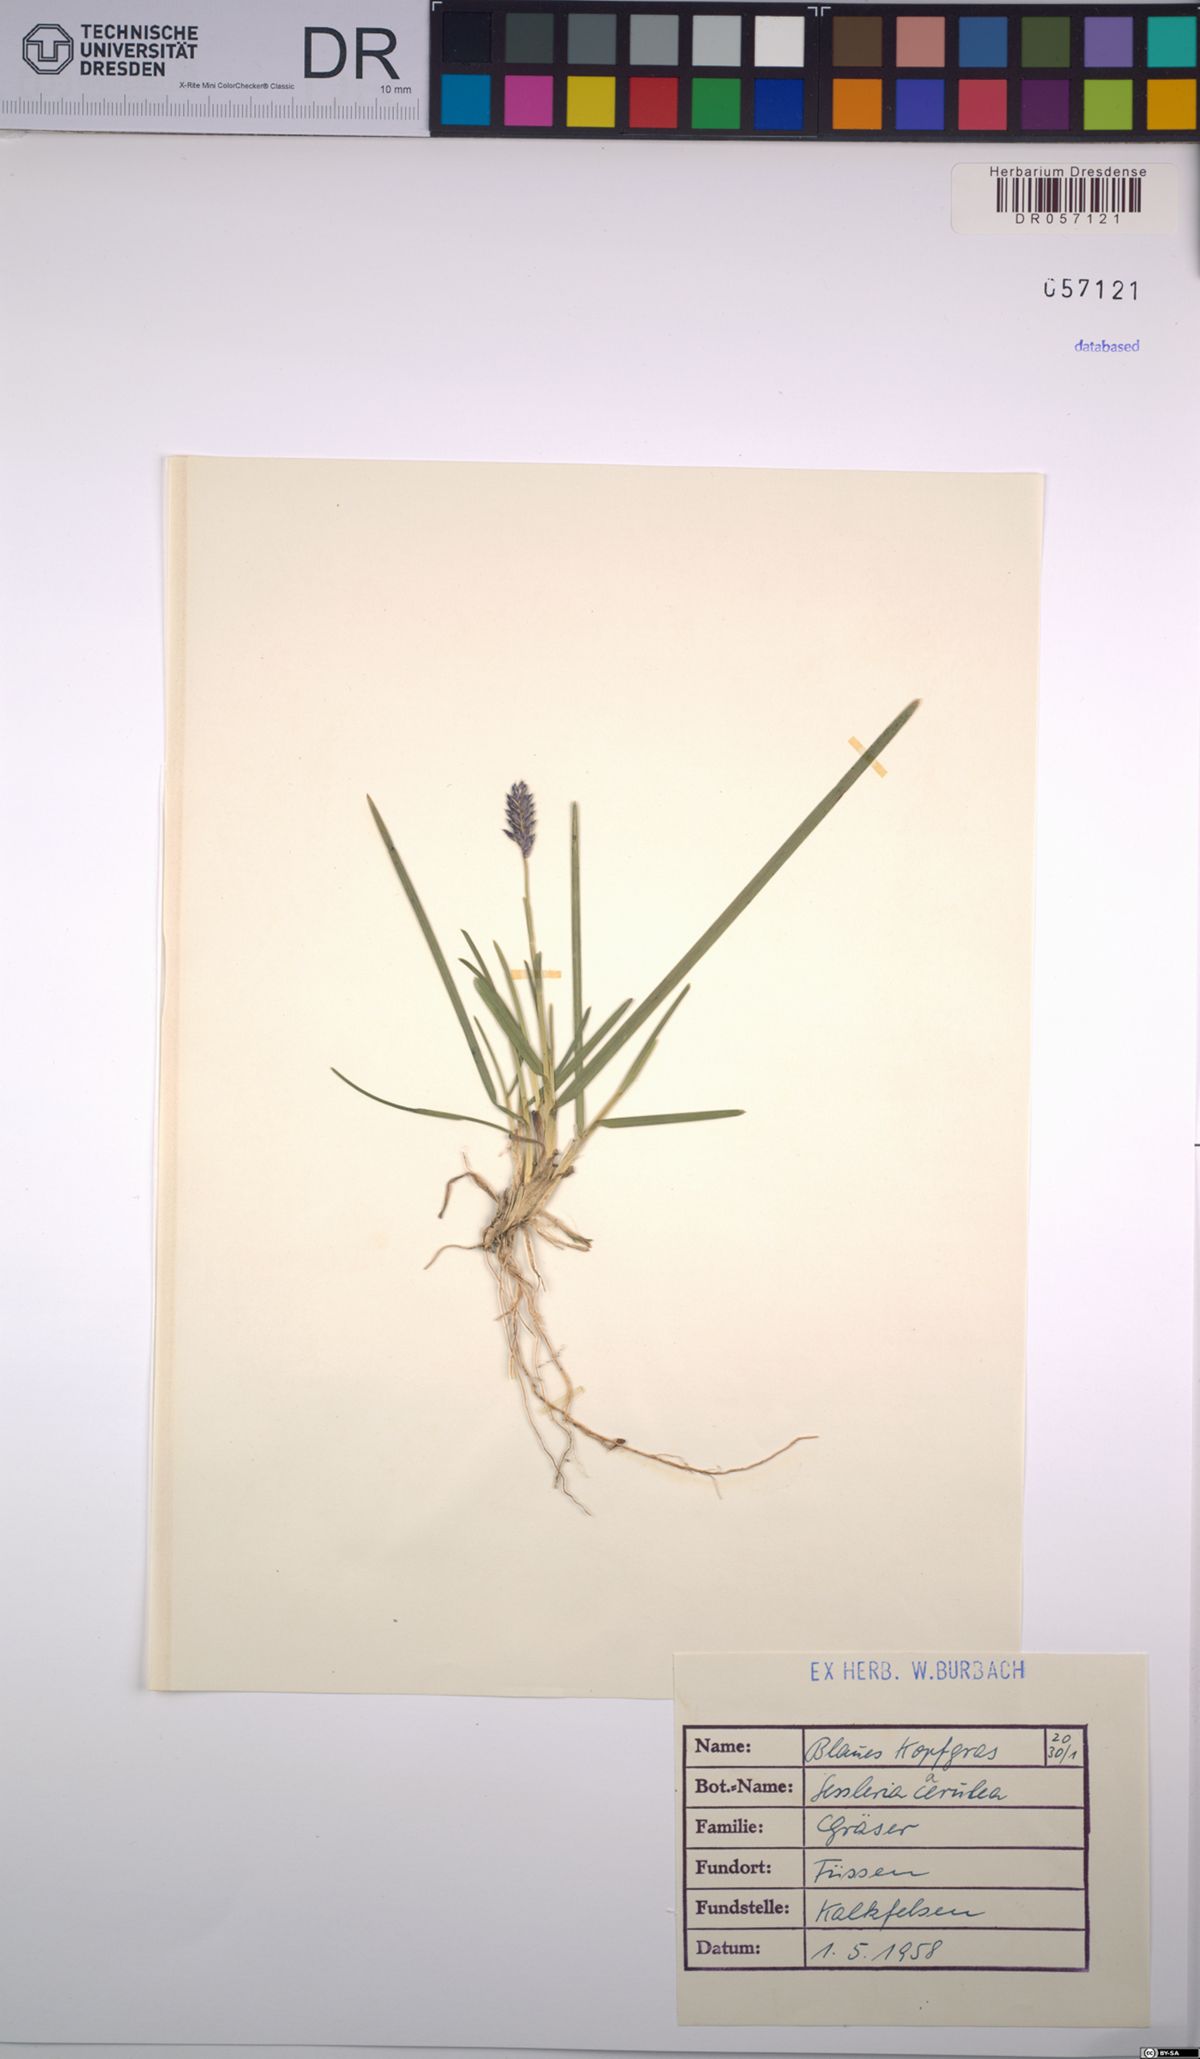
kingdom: Plantae
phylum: Tracheophyta
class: Liliopsida
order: Poales
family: Poaceae
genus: Sesleria
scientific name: Sesleria caerulea
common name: Blue moor-grass
